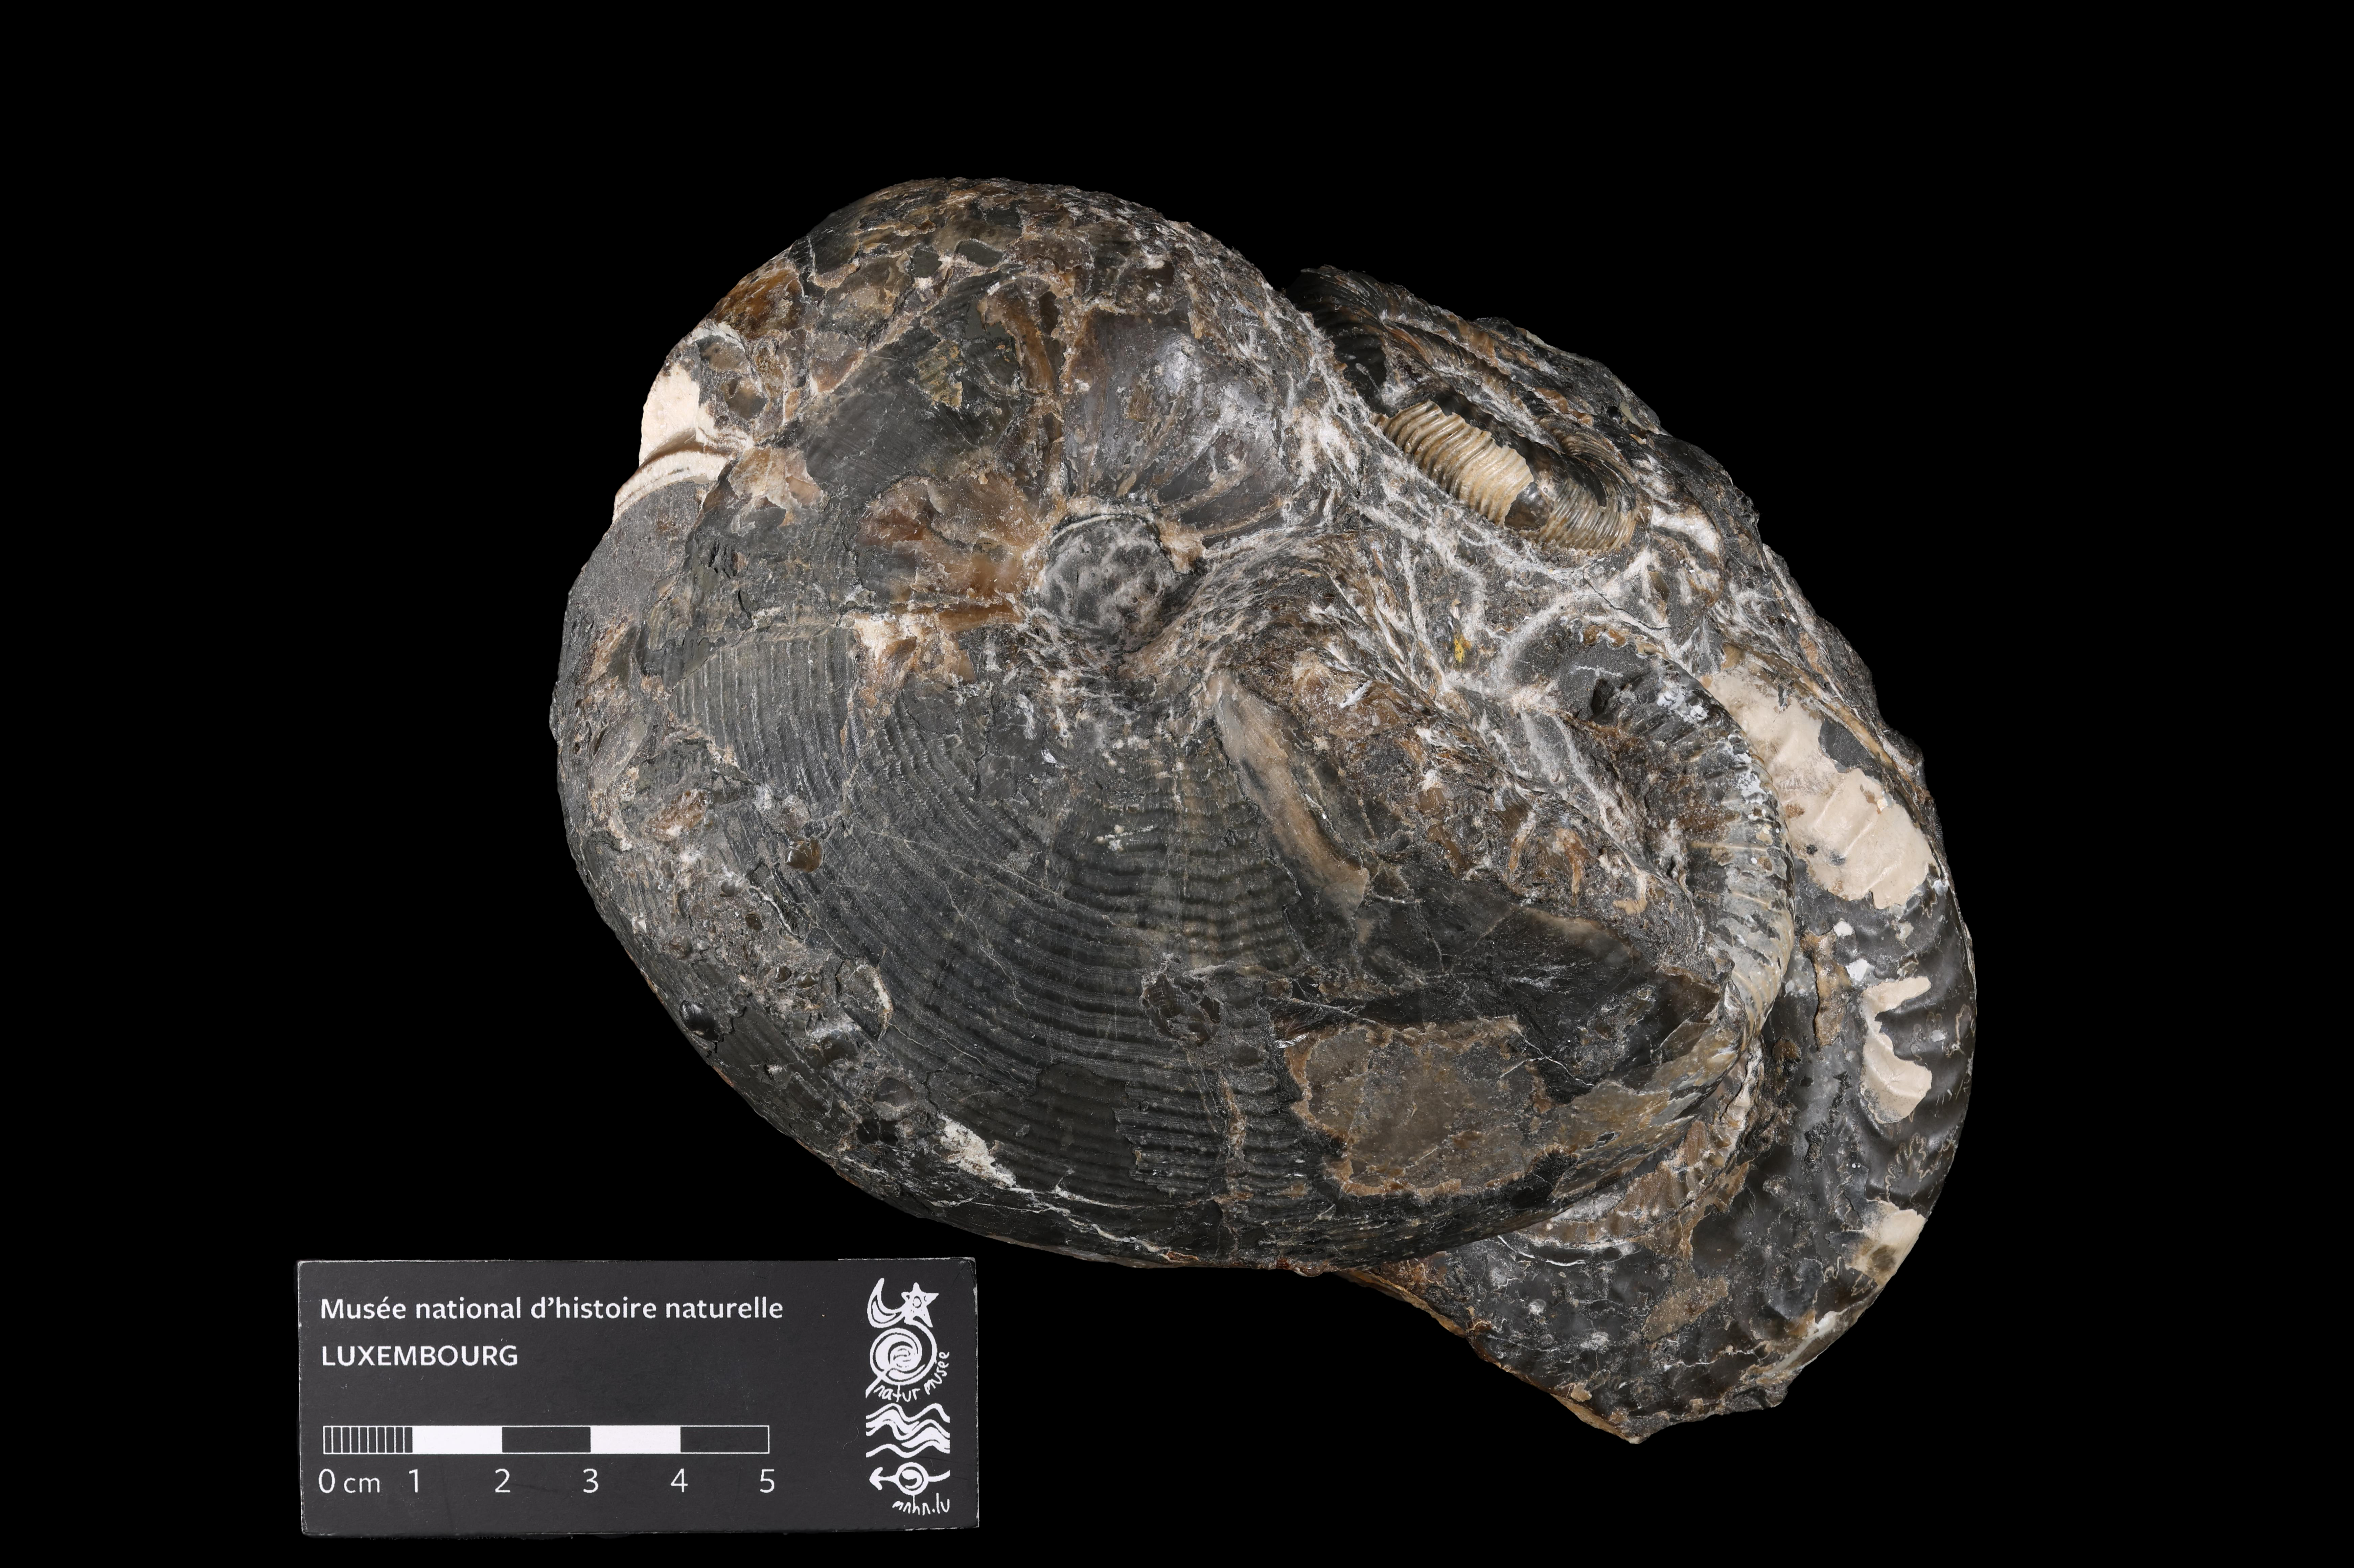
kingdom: Animalia
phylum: Mollusca
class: Cephalopoda
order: Nautilida
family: Nautilidae
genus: Cenoceras
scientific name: Cenoceras
